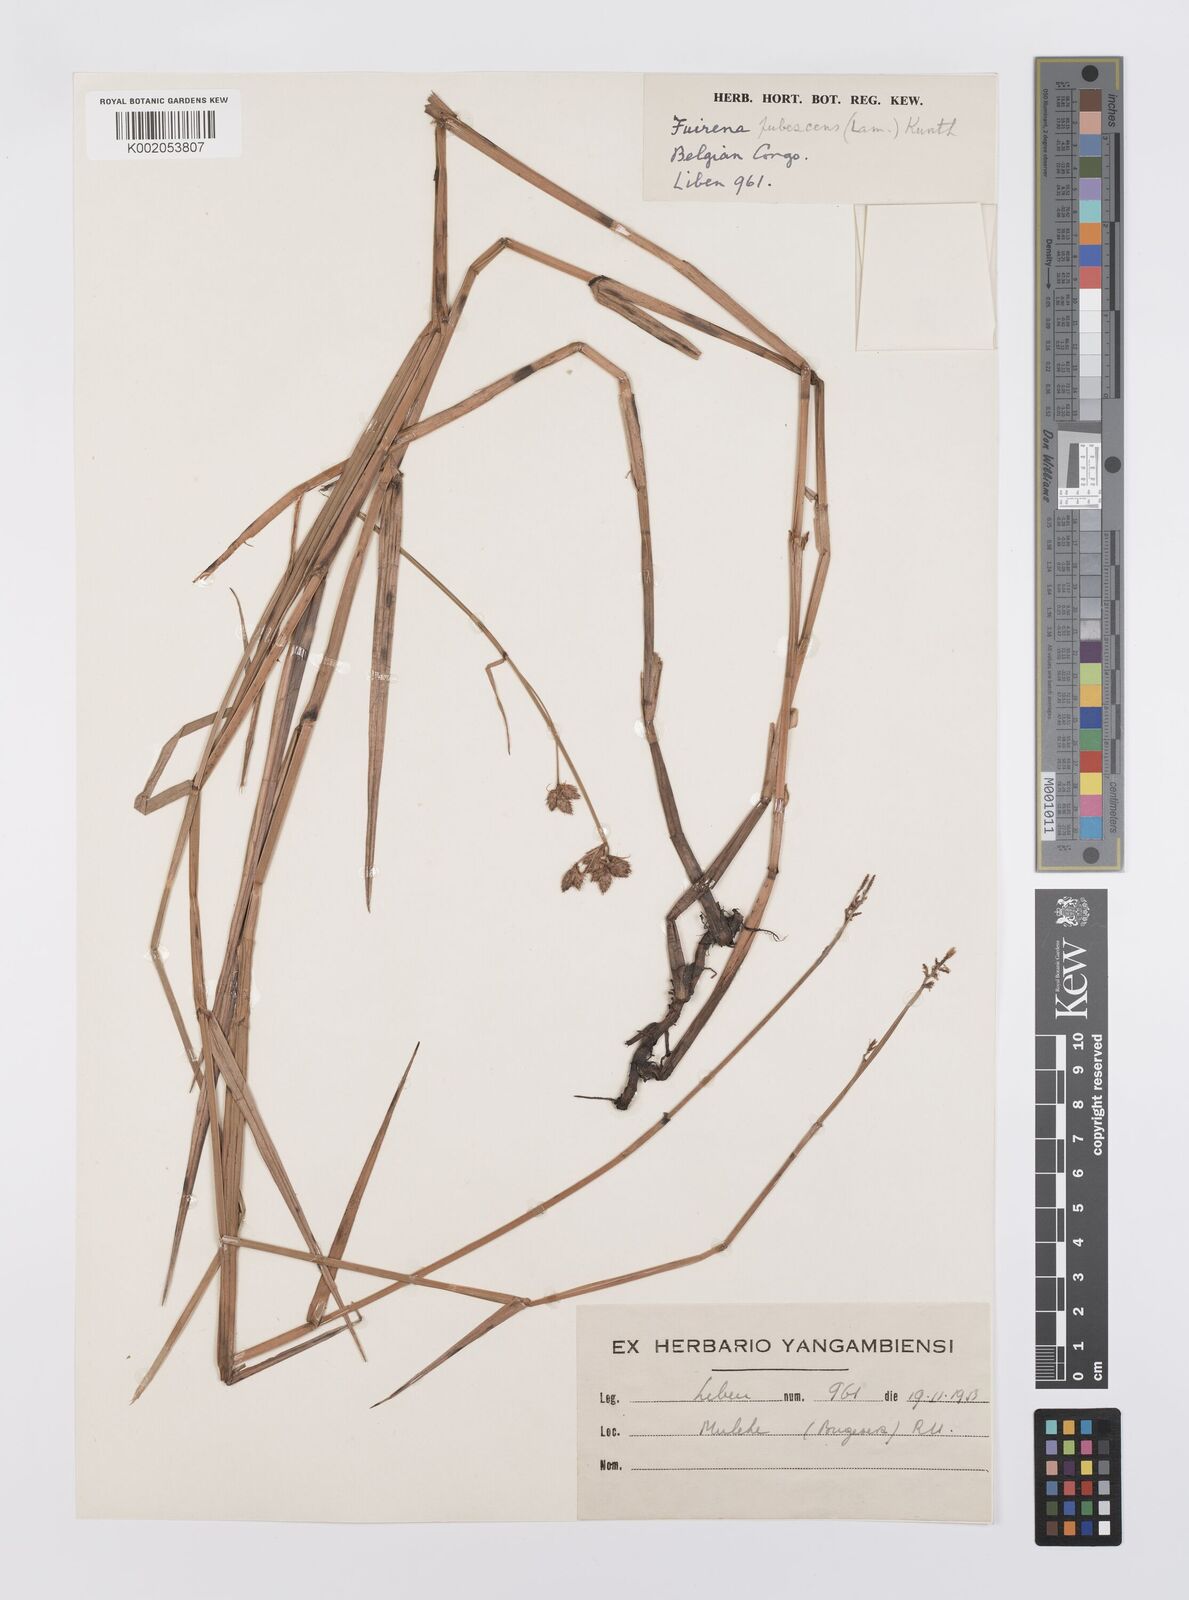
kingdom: Plantae
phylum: Tracheophyta
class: Liliopsida
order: Poales
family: Cyperaceae
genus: Fuirena
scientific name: Fuirena pubescens
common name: Hairy sedge
